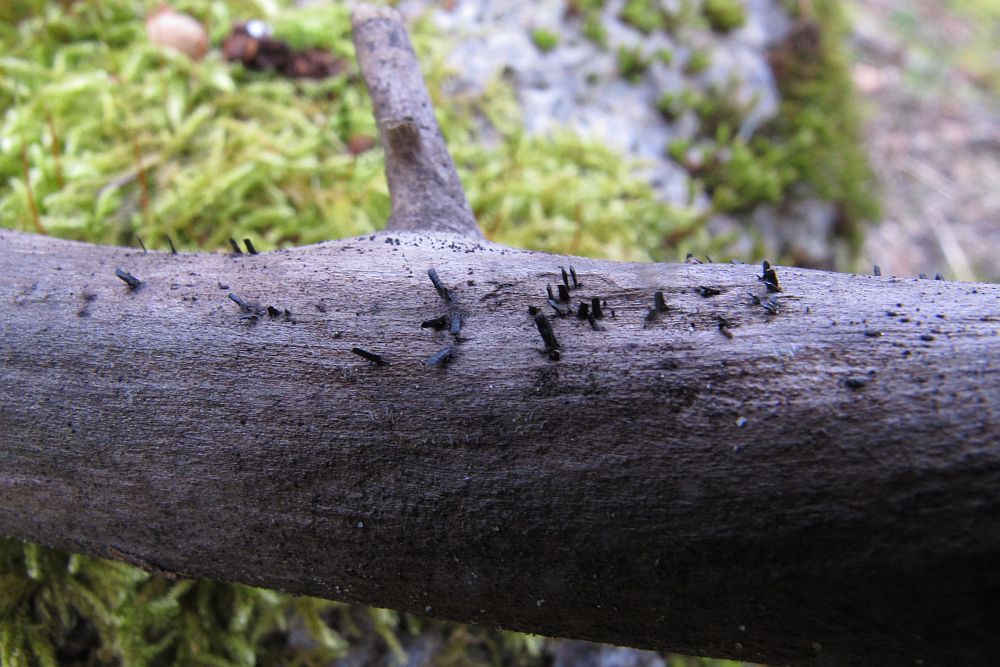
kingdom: Fungi
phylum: Ascomycota
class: Eurotiomycetes
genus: Glyphium
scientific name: Glyphium elatum
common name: kuløkse
